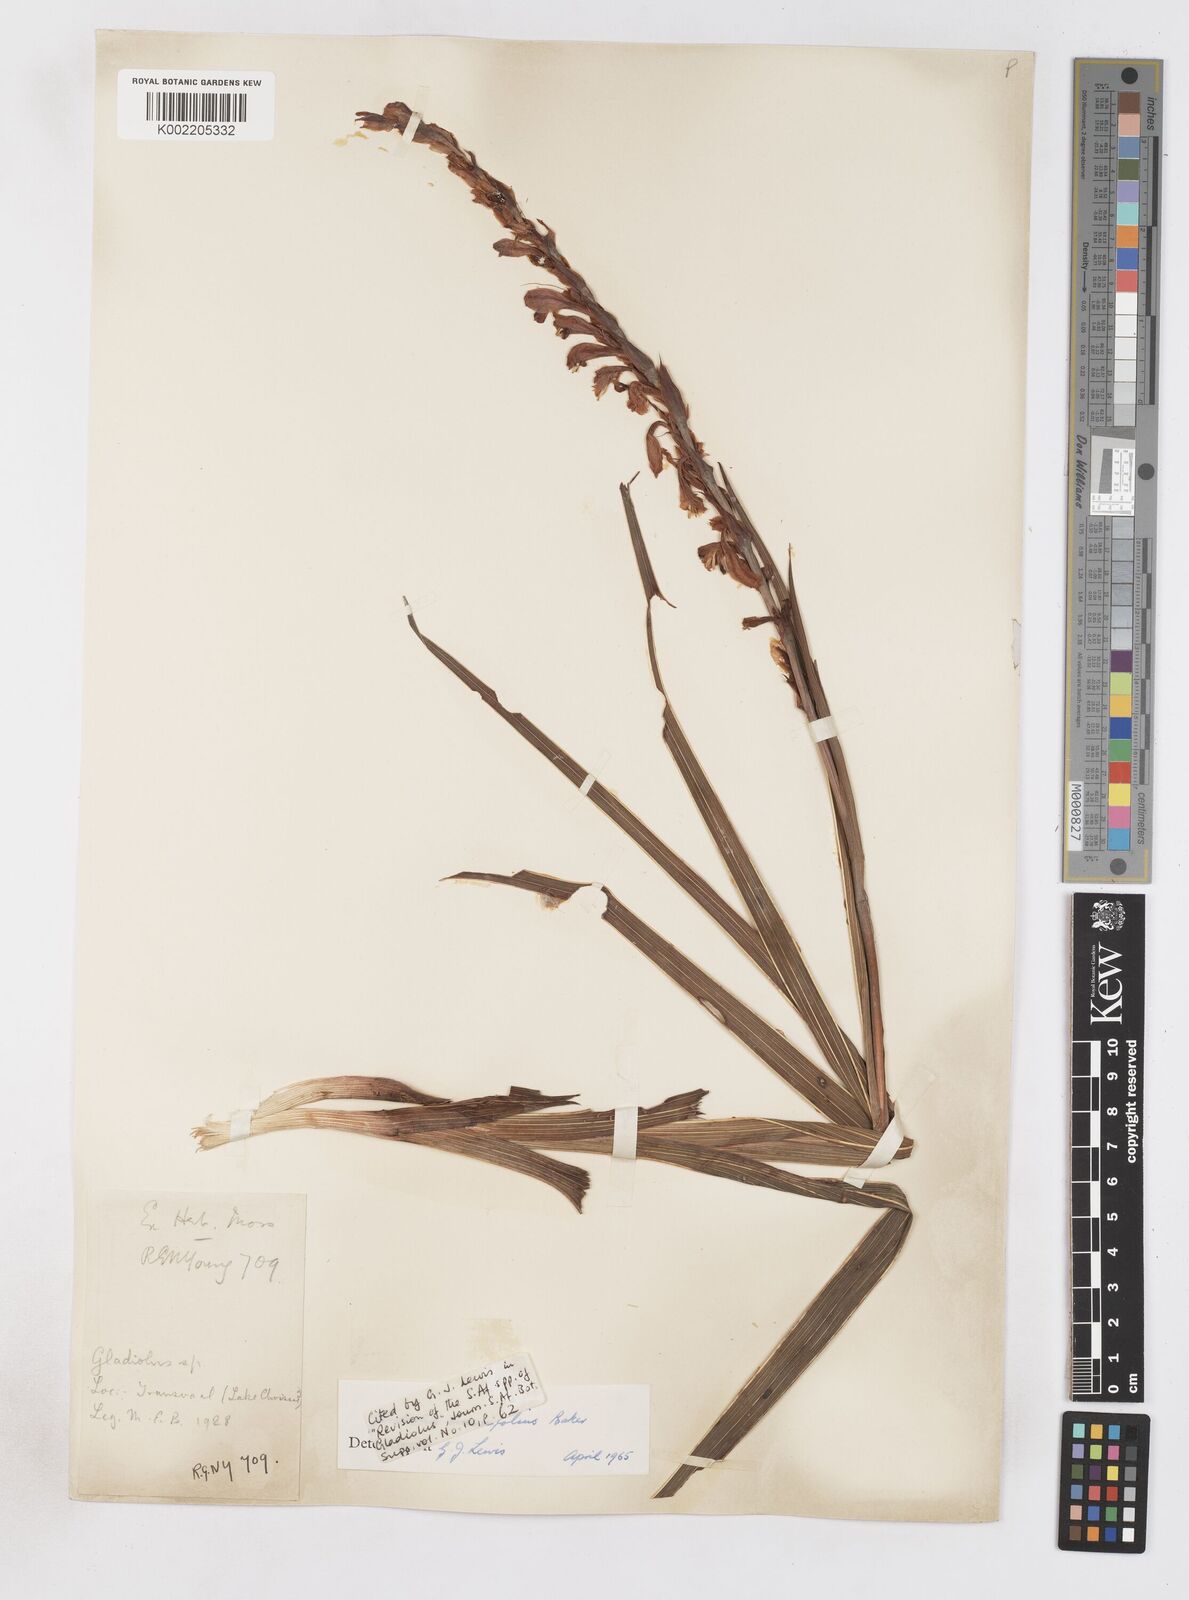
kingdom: Plantae
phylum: Tracheophyta
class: Liliopsida
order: Asparagales
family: Iridaceae
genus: Gladiolus
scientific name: Gladiolus crassifolius
